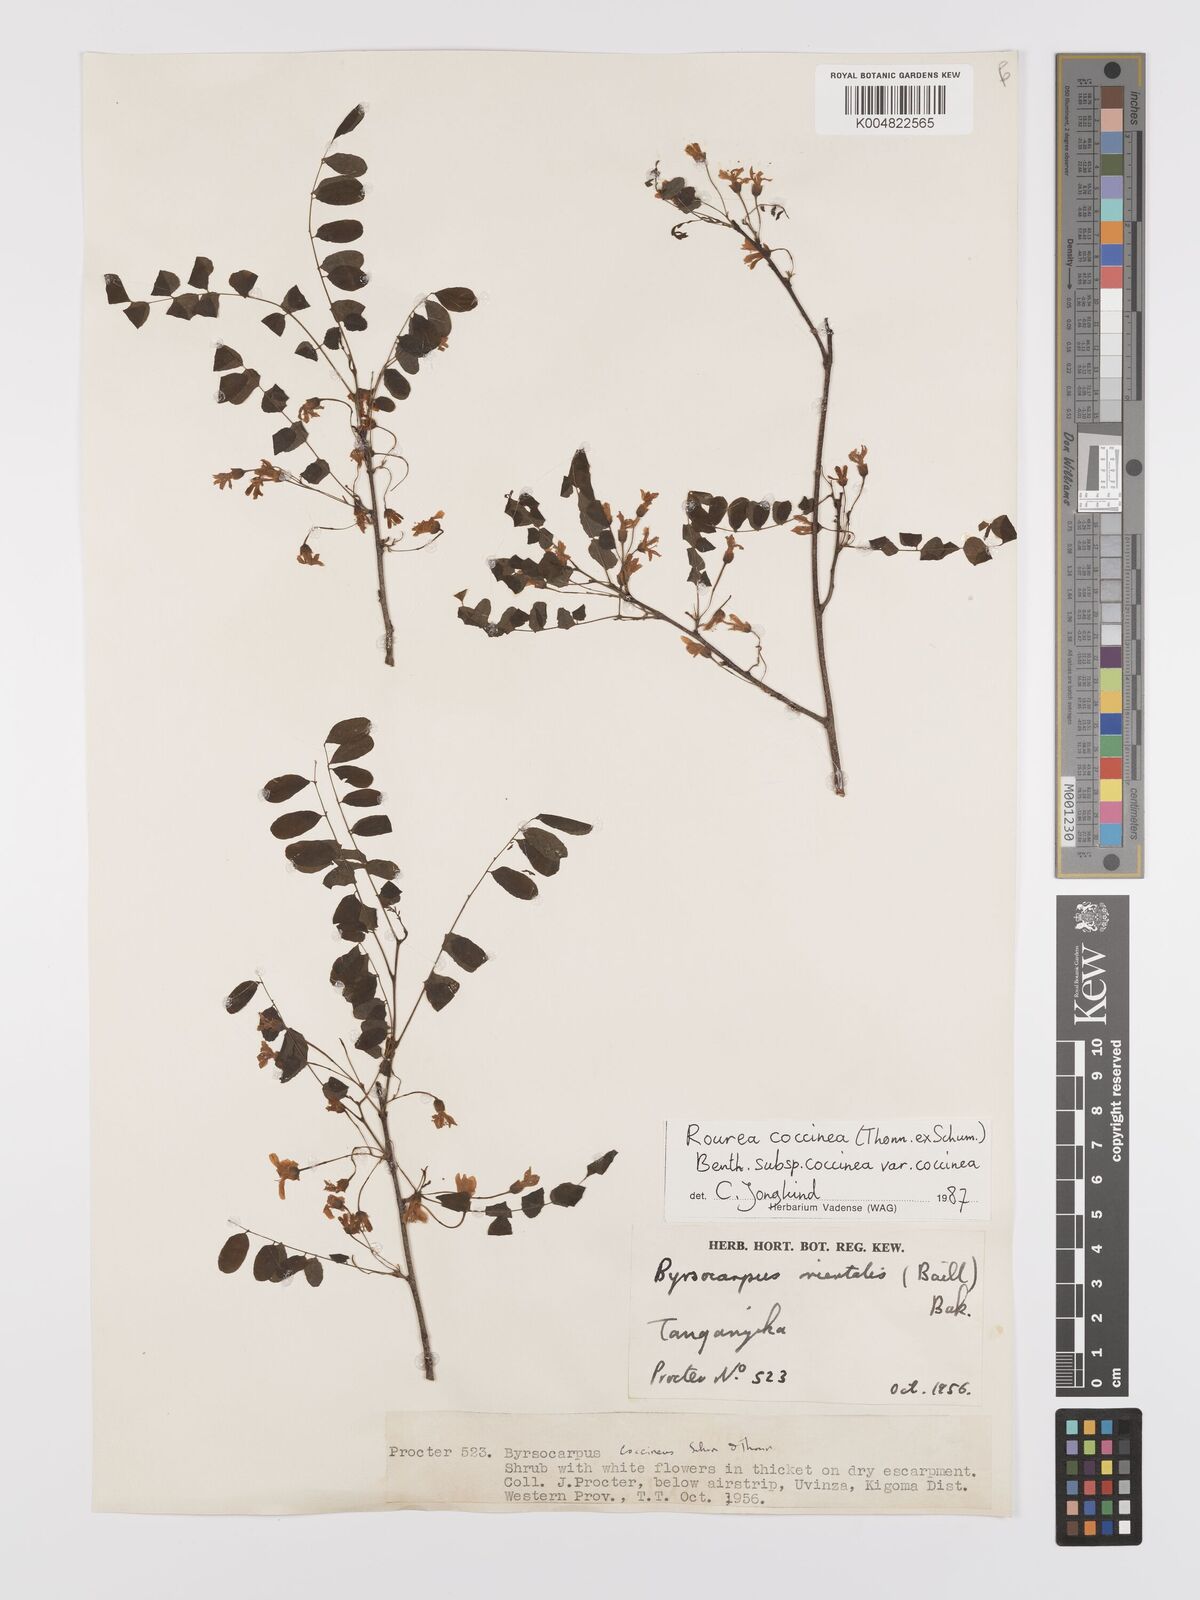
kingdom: Plantae
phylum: Tracheophyta
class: Magnoliopsida
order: Oxalidales
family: Connaraceae
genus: Rourea
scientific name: Rourea coccinea
